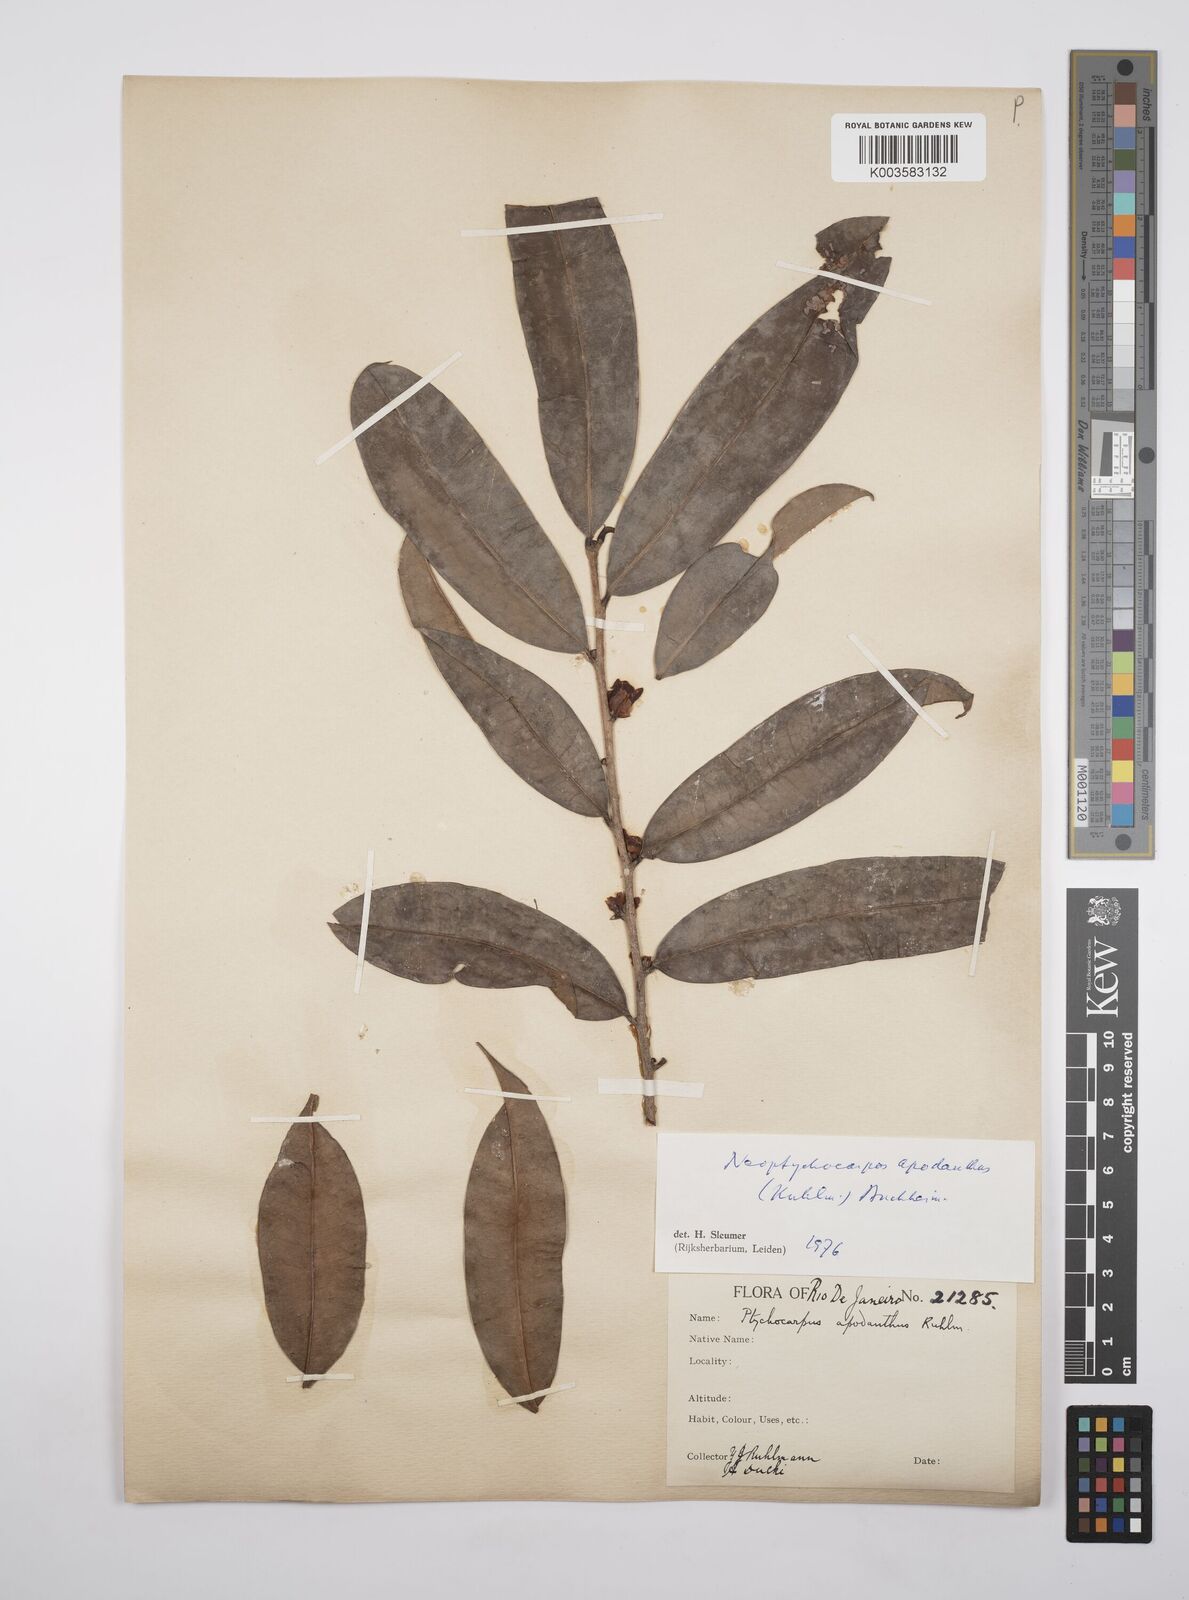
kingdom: Plantae
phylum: Tracheophyta
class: Magnoliopsida
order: Malpighiales
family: Salicaceae
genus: Casearia
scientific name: Casearia apodantha
